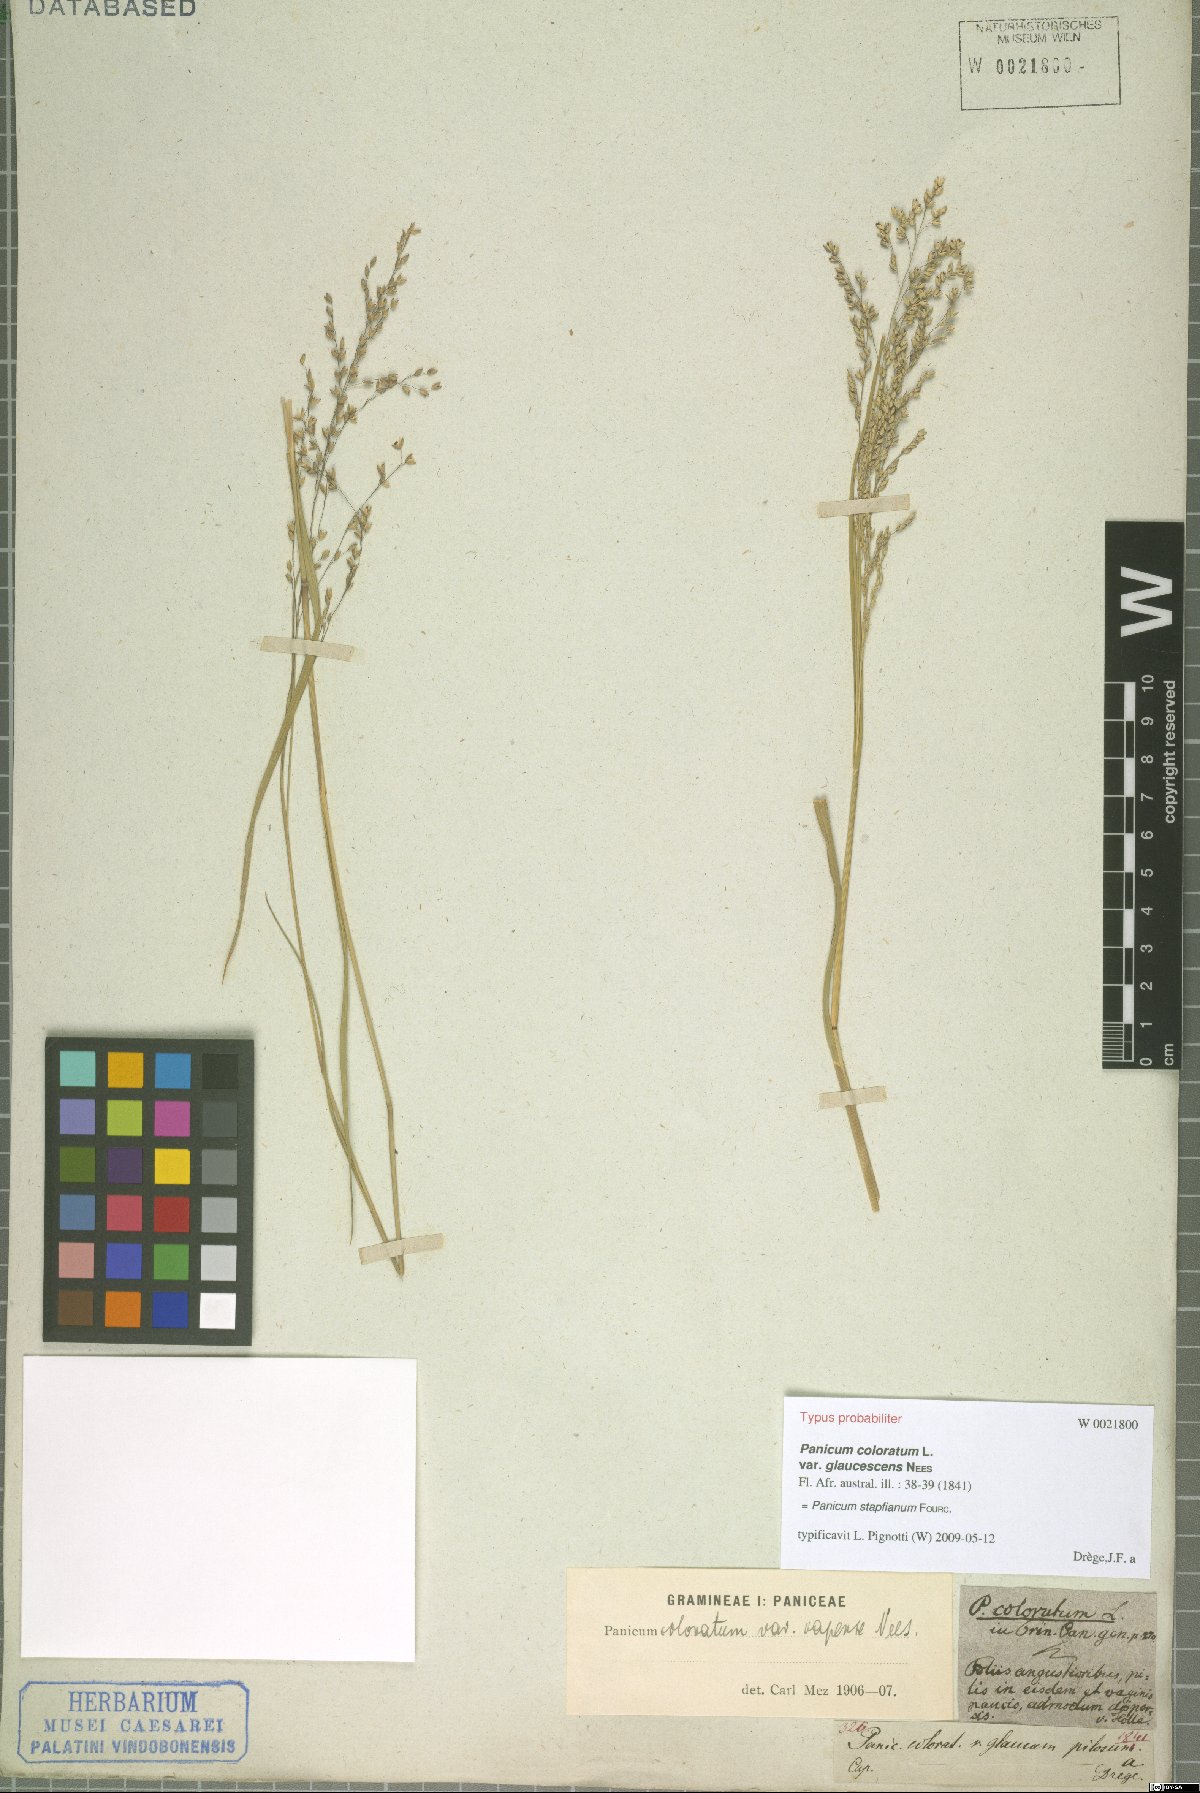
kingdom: Plantae
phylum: Tracheophyta
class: Liliopsida
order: Poales
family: Poaceae
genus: Panicum
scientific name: Panicum stapfianum
